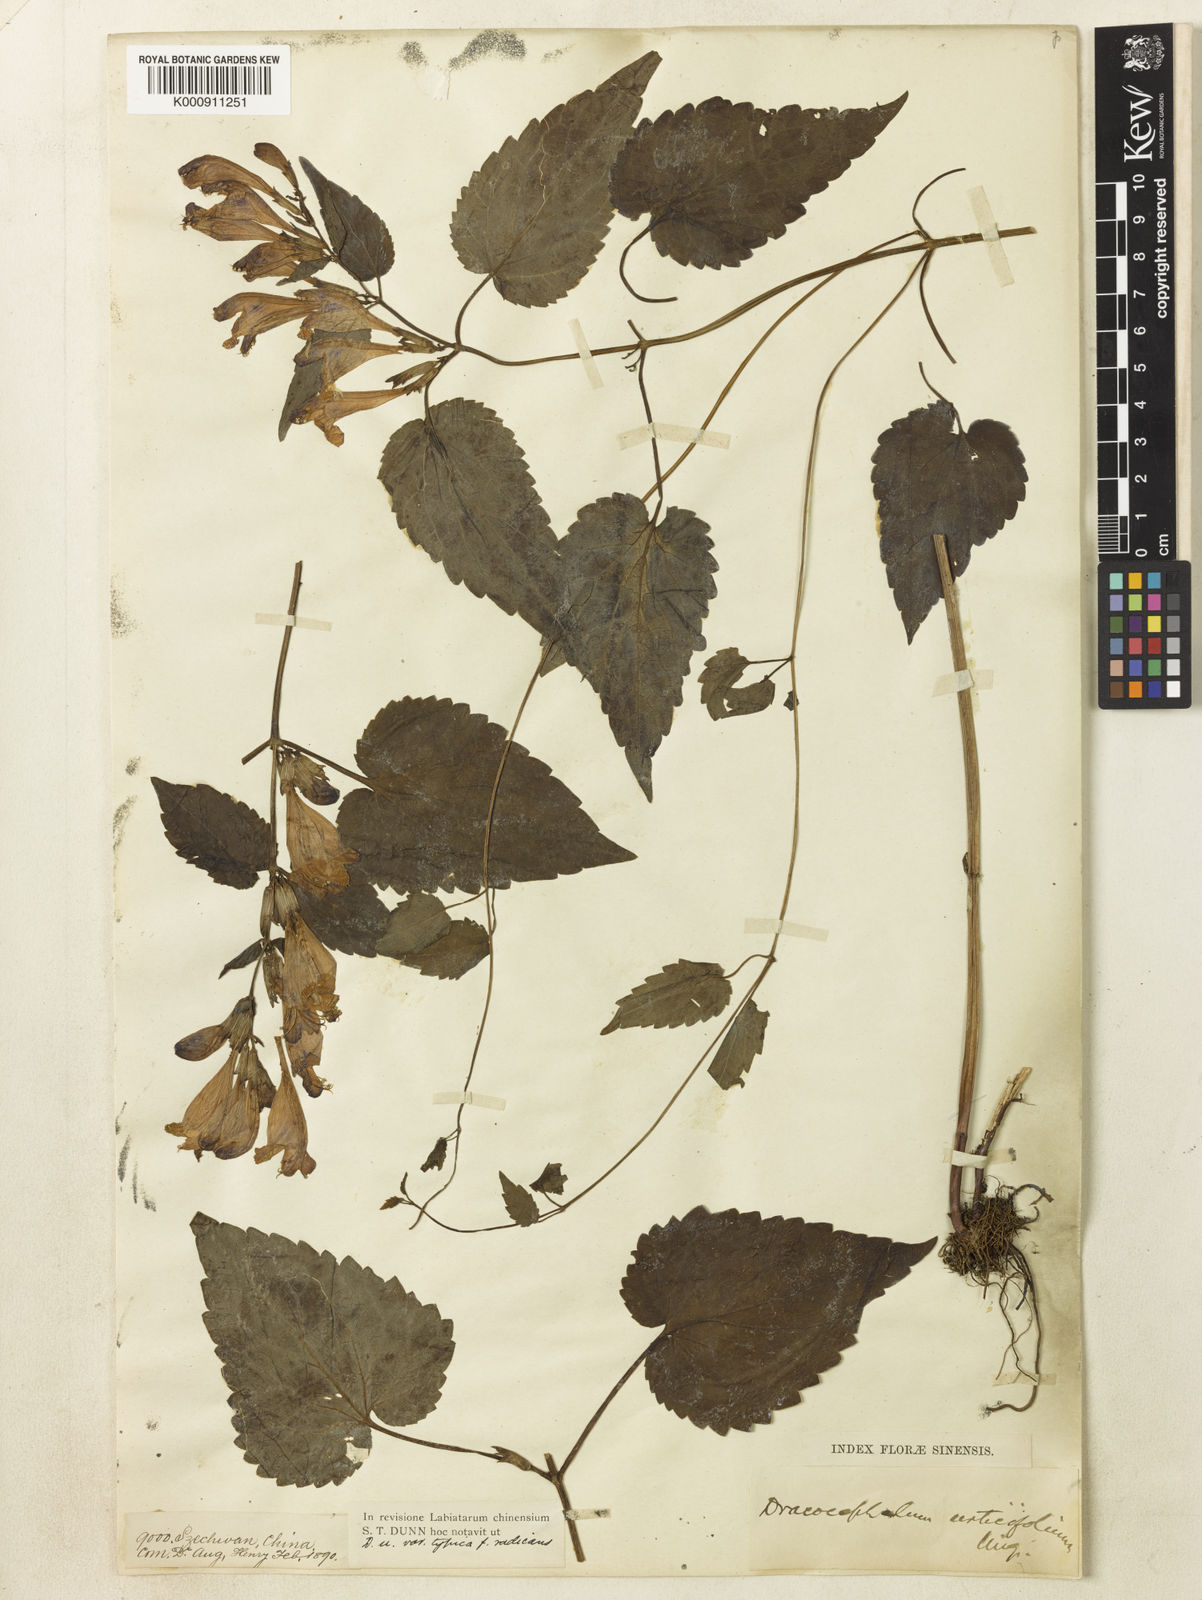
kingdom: Plantae
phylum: Tracheophyta
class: Magnoliopsida
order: Lamiales
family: Lamiaceae
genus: Meehania
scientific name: Meehania fargesii
